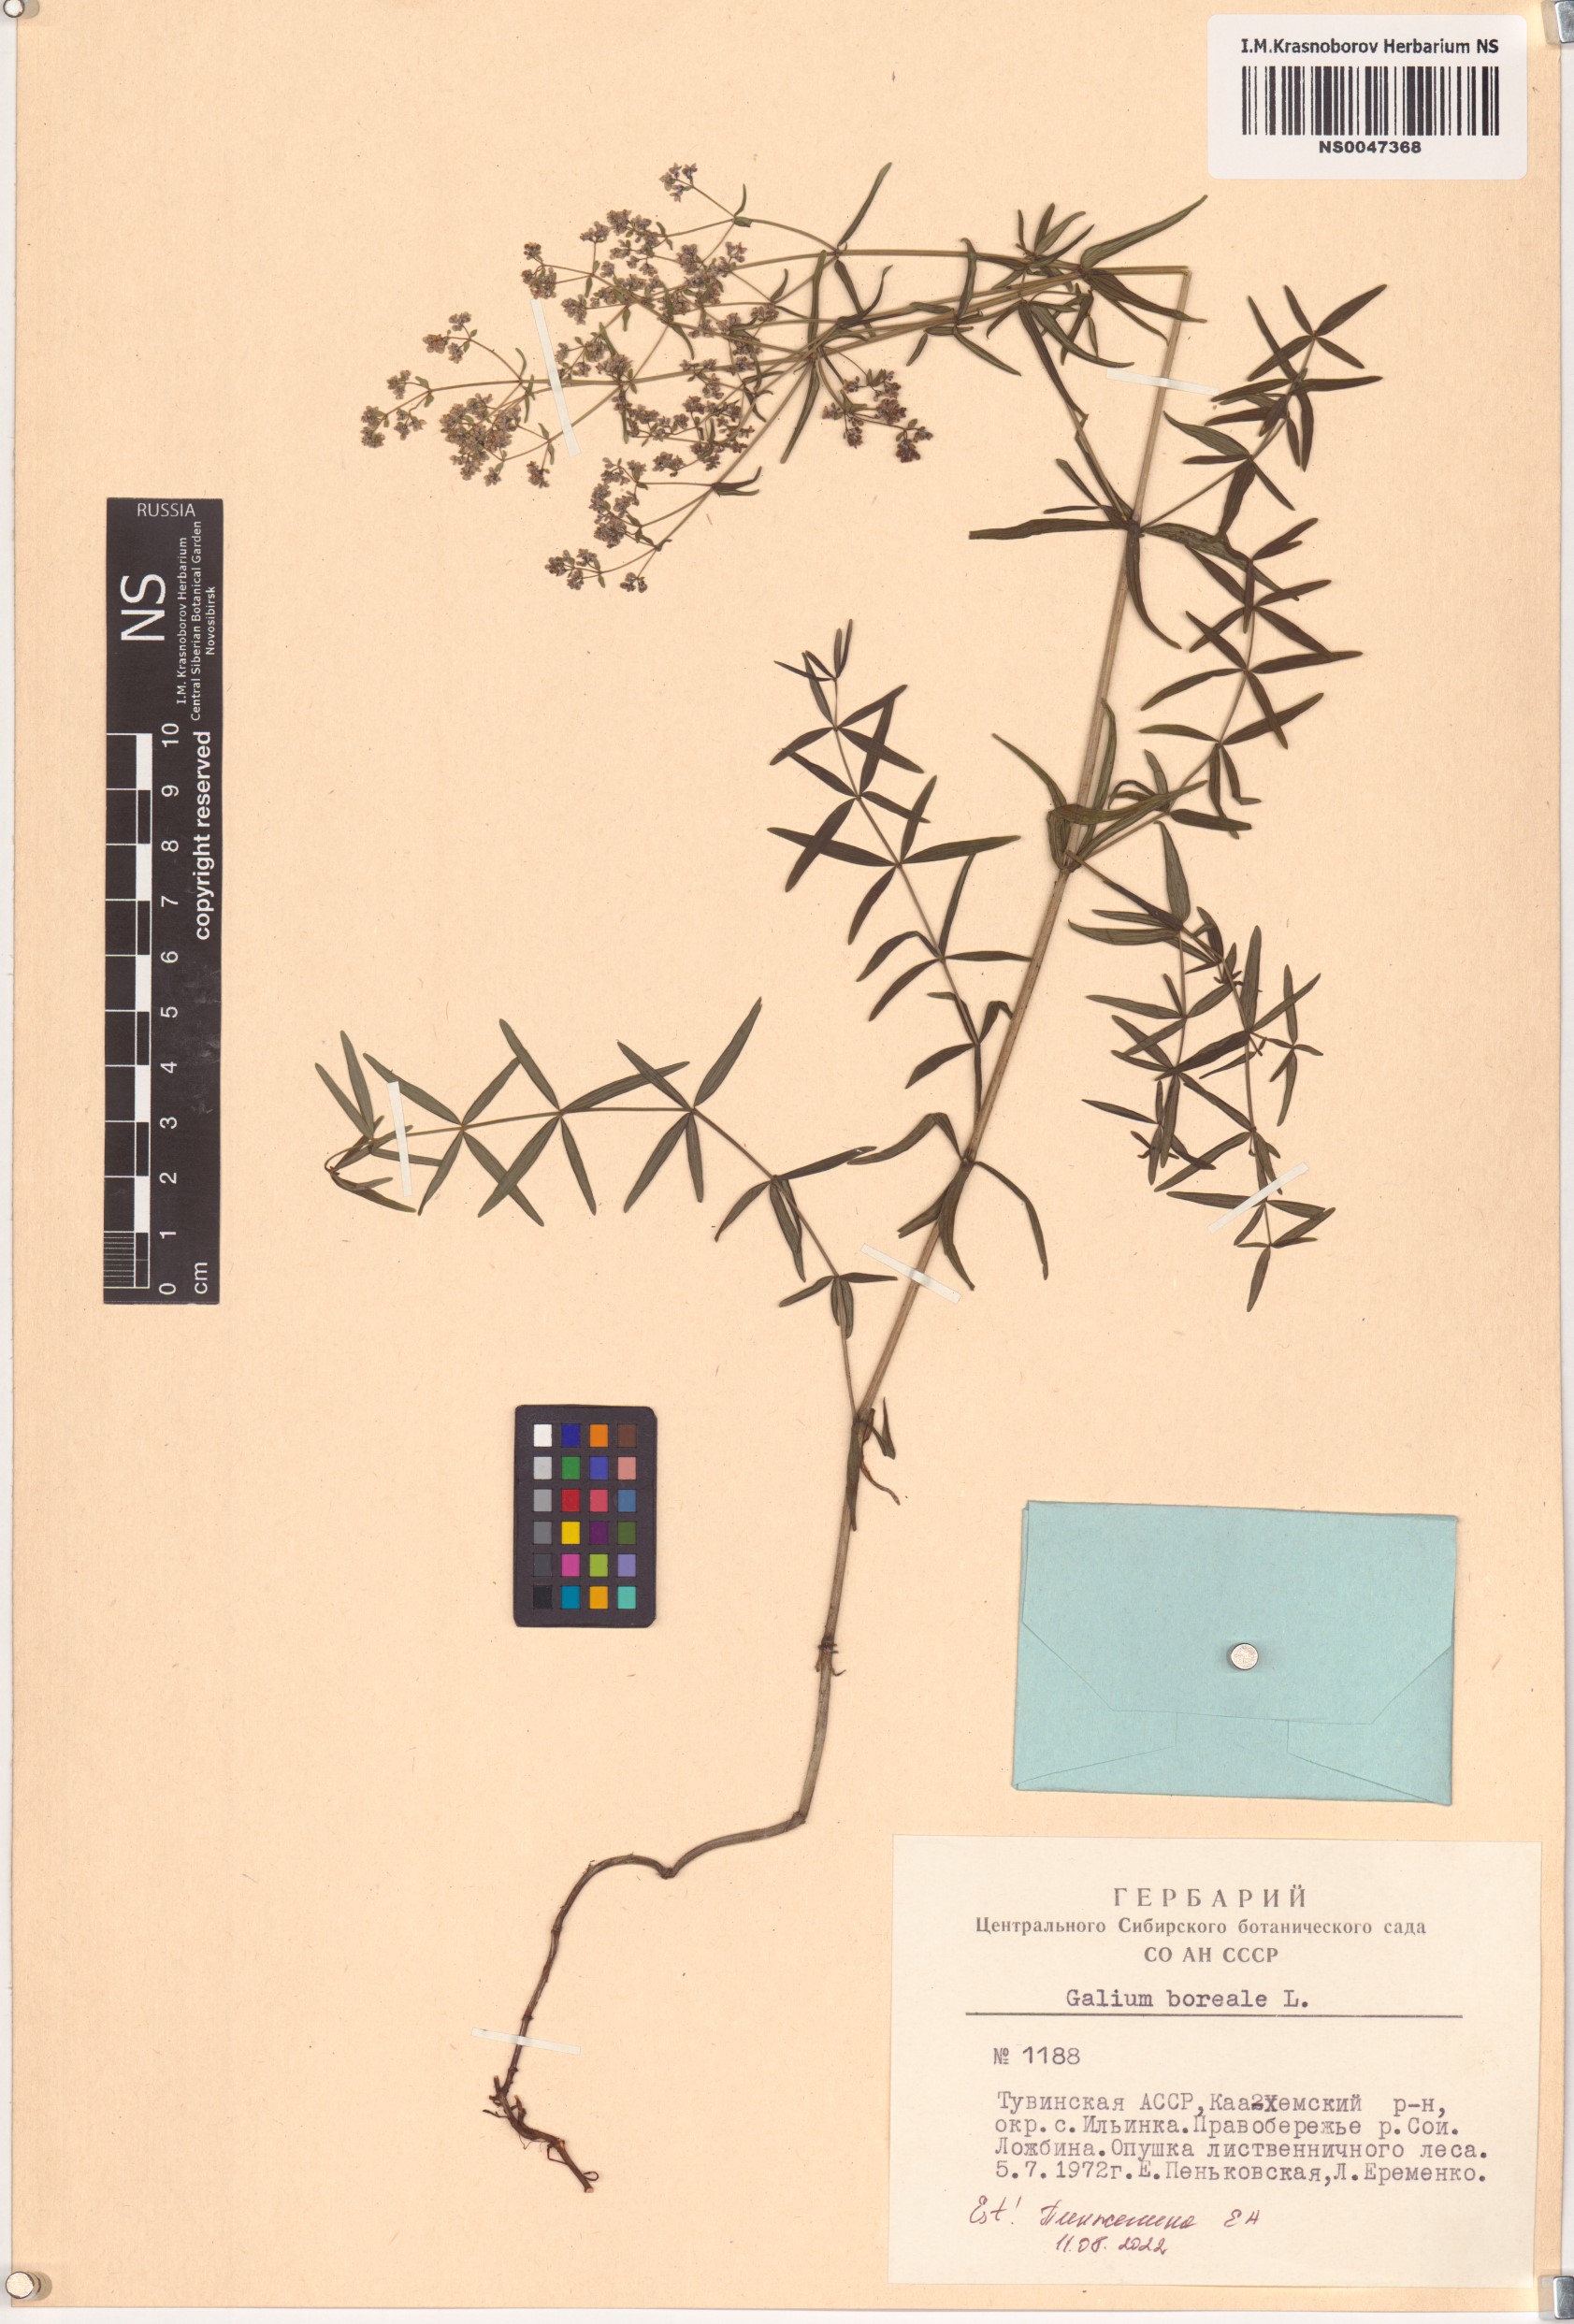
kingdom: Plantae
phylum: Tracheophyta
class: Magnoliopsida
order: Gentianales
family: Rubiaceae
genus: Galium
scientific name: Galium boreale
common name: Northern bedstraw
